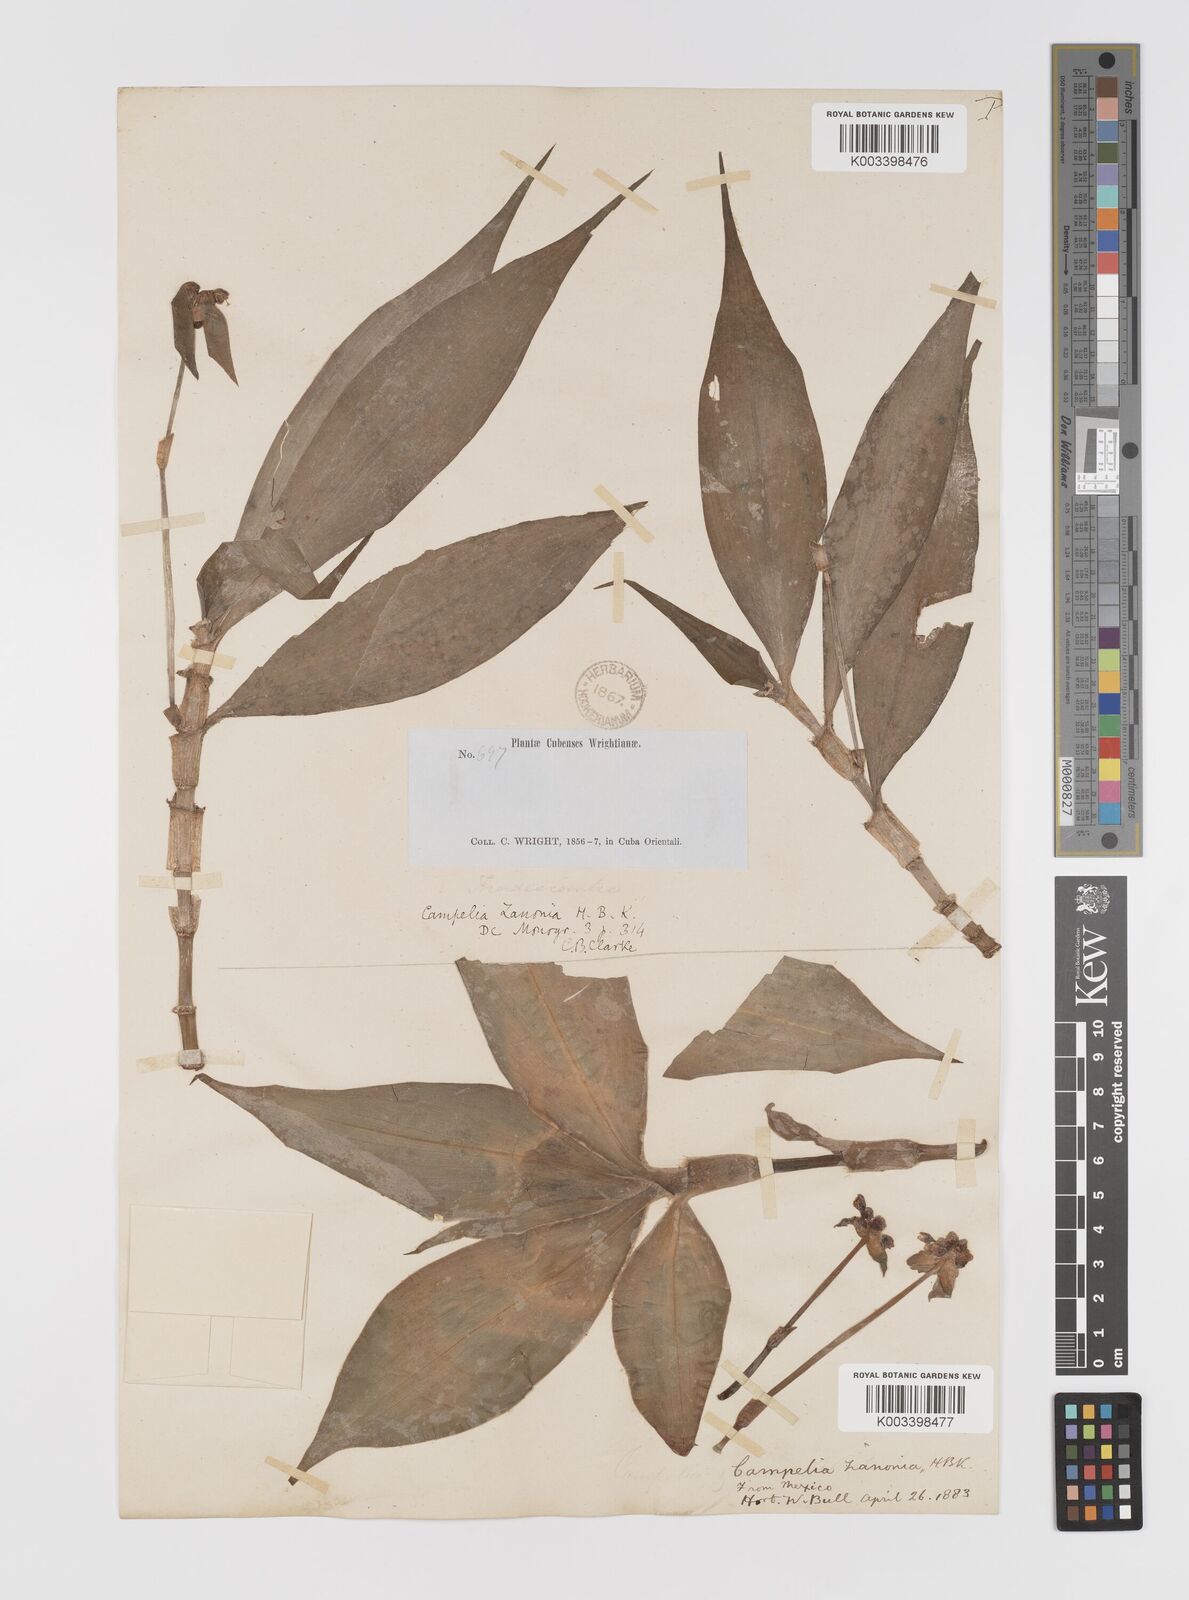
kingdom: Plantae
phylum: Tracheophyta
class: Liliopsida
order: Commelinales
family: Commelinaceae
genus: Tradescantia
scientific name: Tradescantia zanonia
